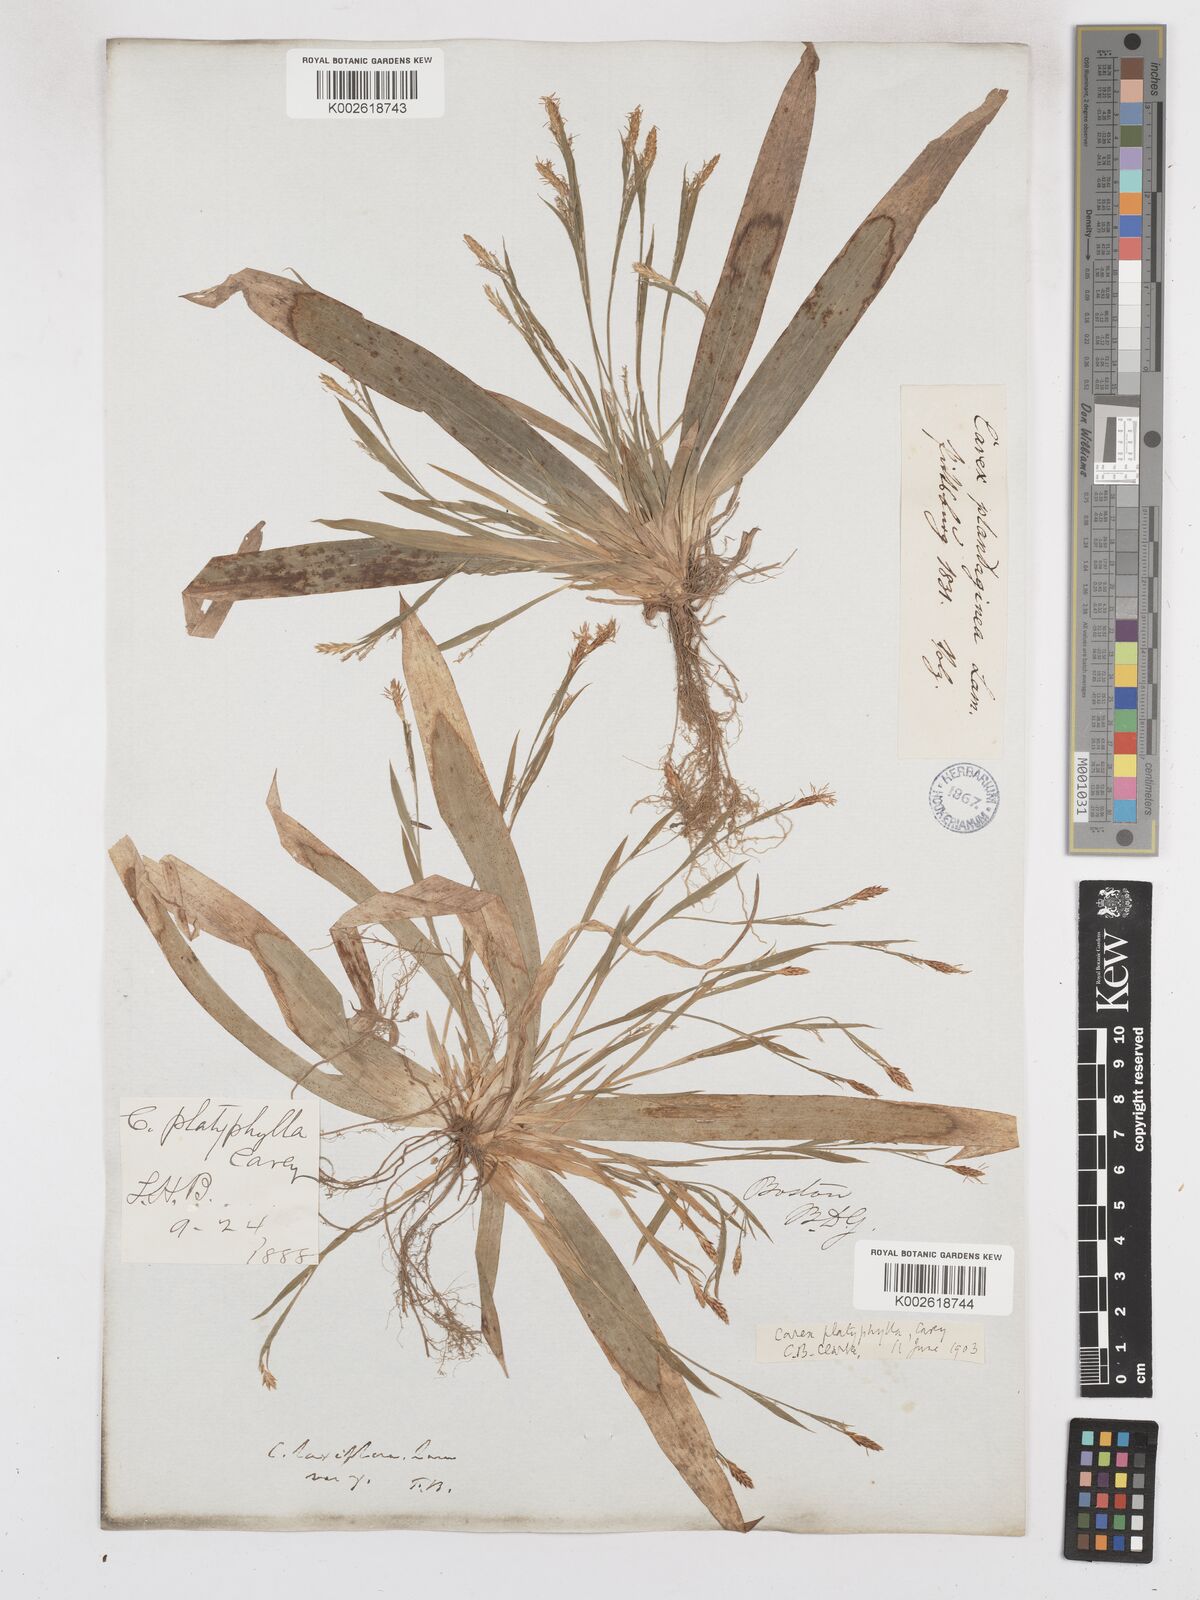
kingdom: Plantae
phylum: Tracheophyta
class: Liliopsida
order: Poales
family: Cyperaceae
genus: Carex
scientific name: Carex platyphylla
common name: Broad-leaved sedge
